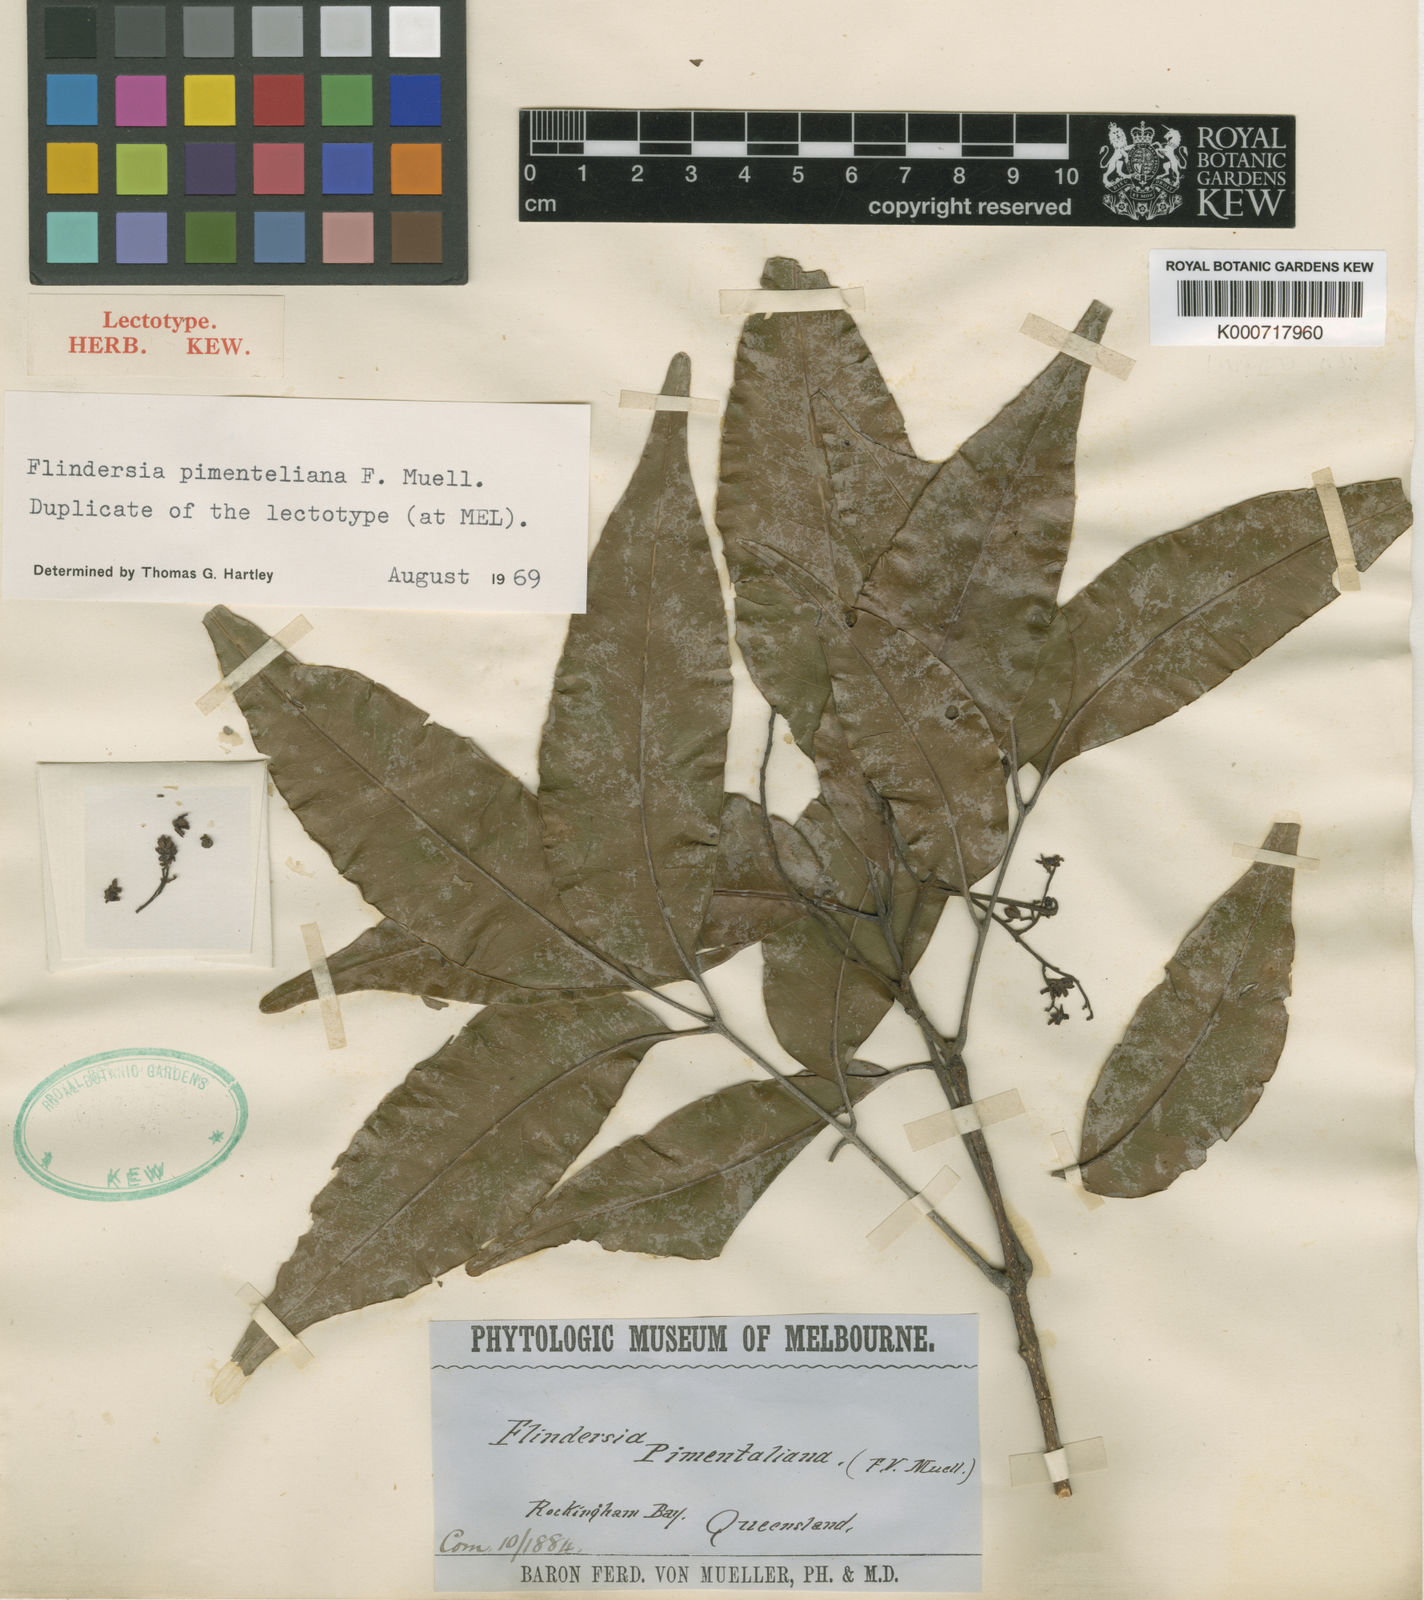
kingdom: Plantae
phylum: Tracheophyta
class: Magnoliopsida
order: Sapindales
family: Rutaceae
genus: Flindersia
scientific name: Flindersia pimenteliana
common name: Queensland-maple
